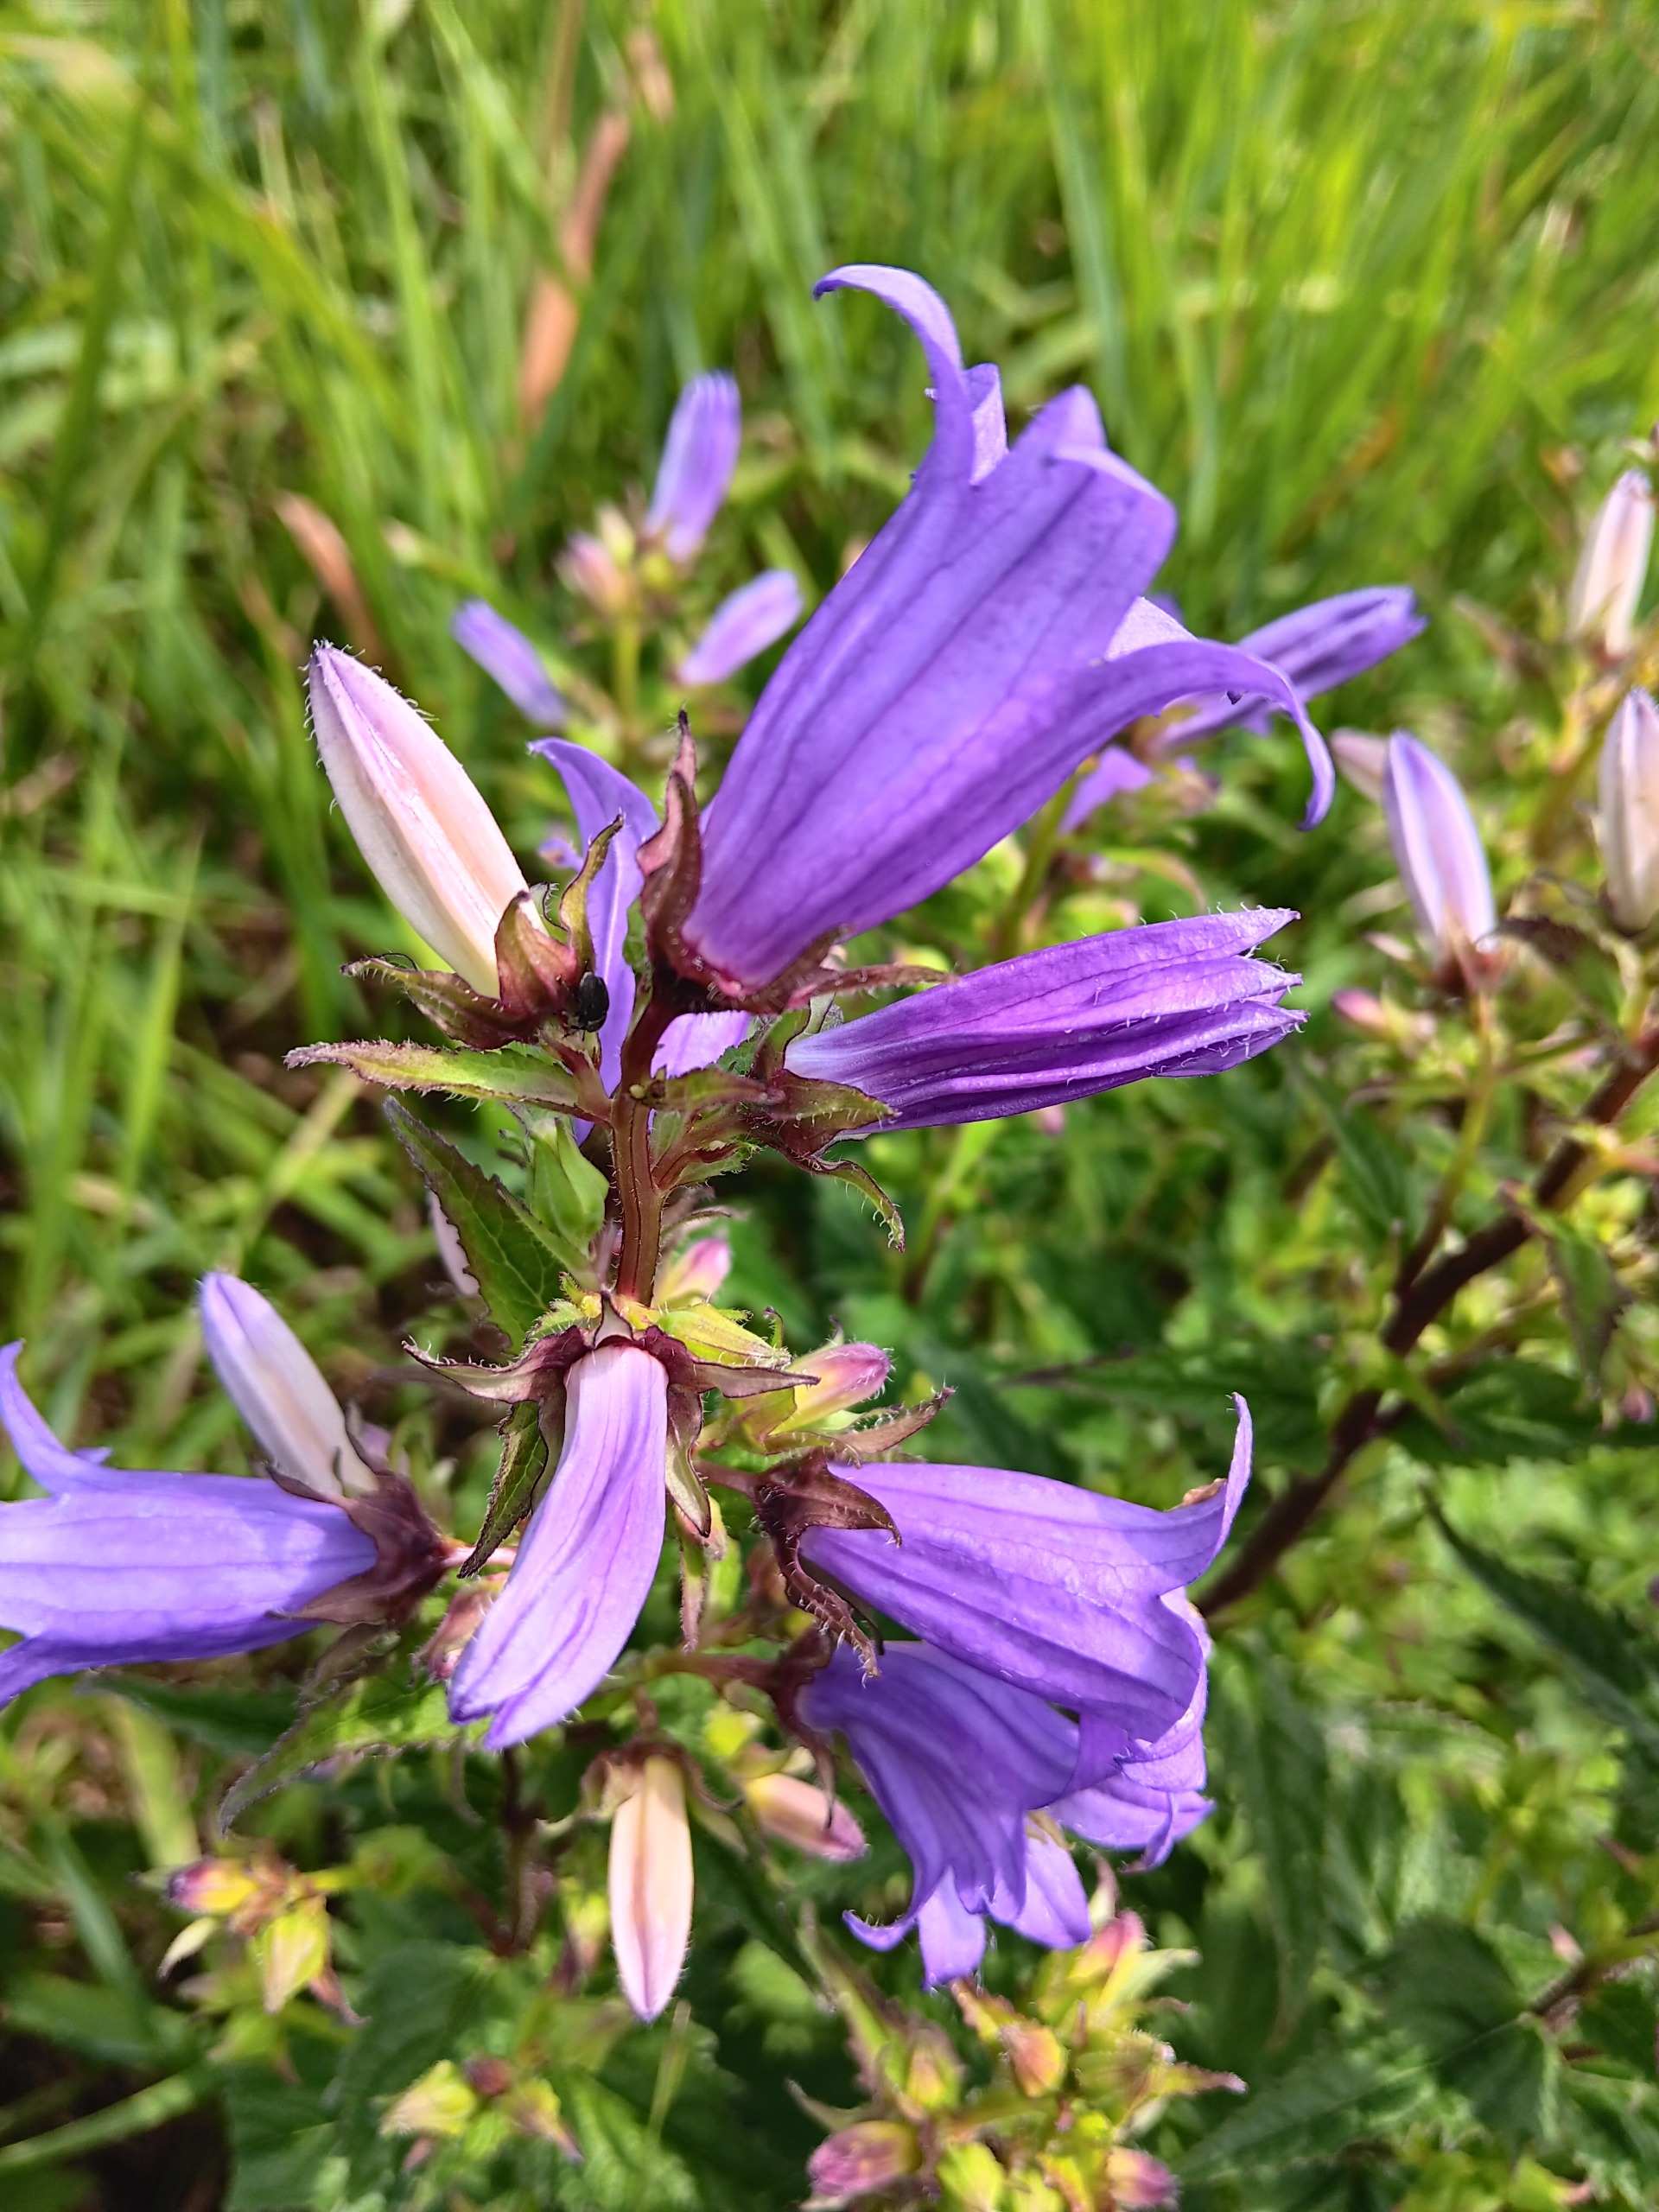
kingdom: Plantae
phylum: Tracheophyta
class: Magnoliopsida
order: Asterales
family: Campanulaceae
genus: Campanula
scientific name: Campanula trachelium
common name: Nælde-klokke
